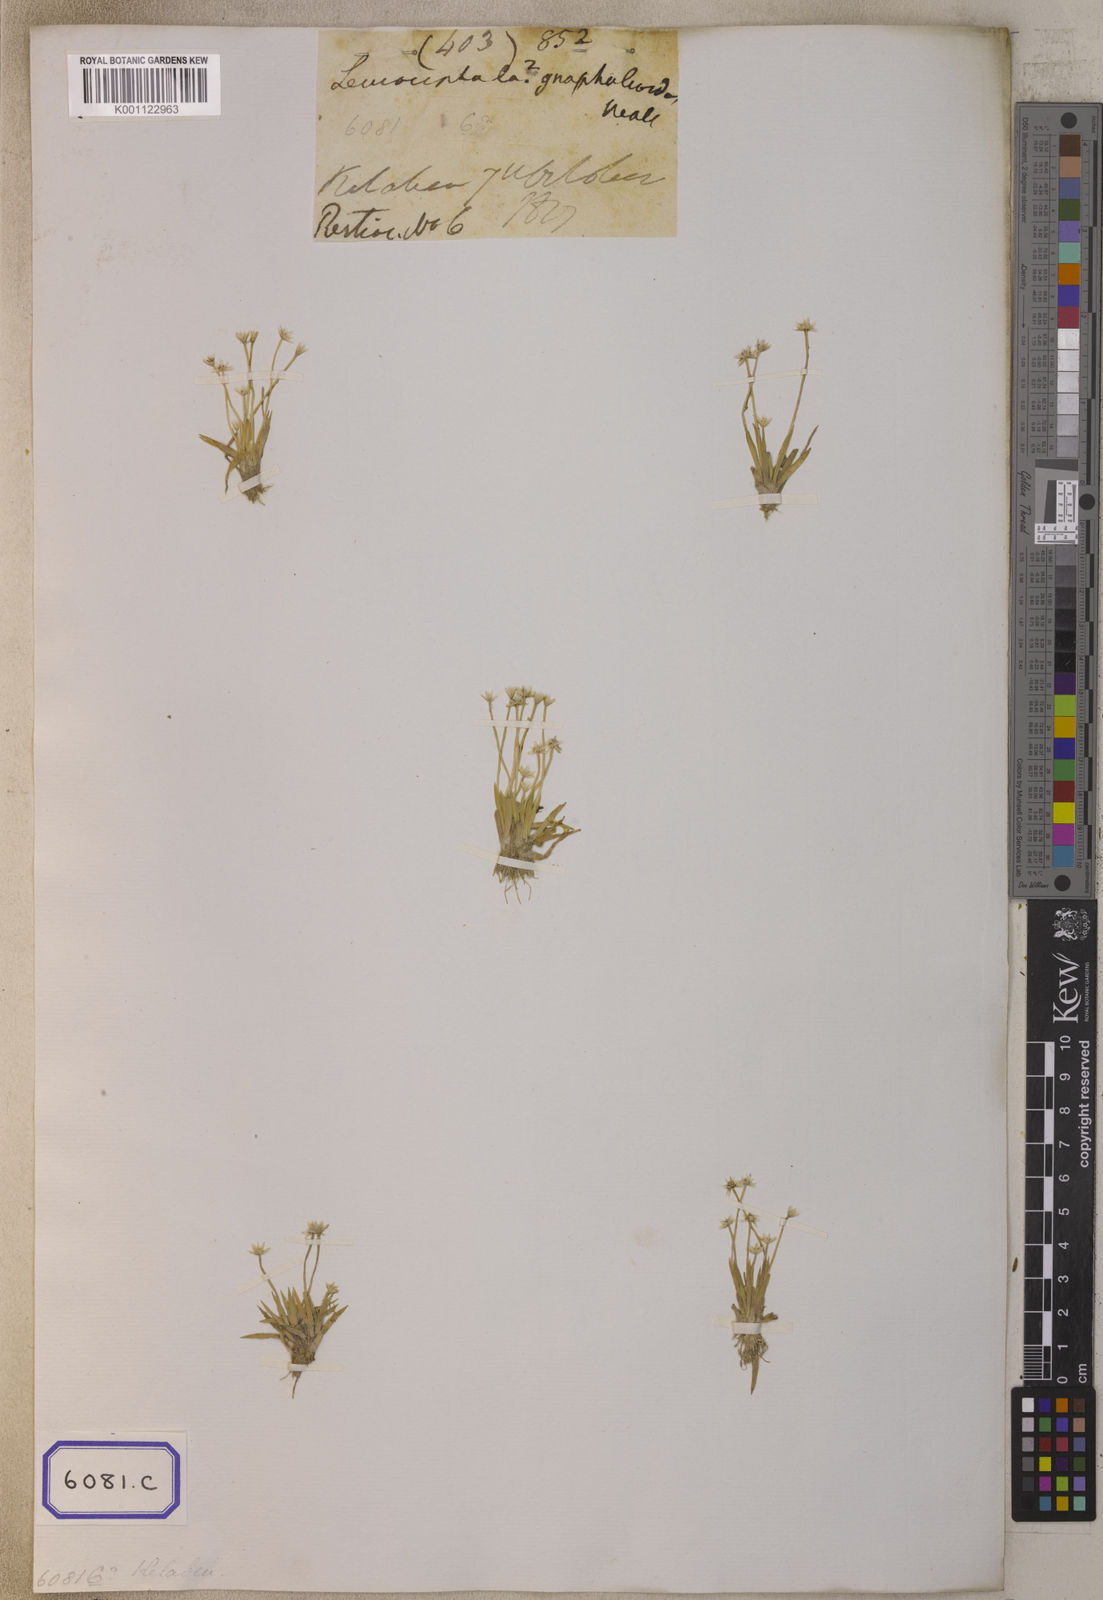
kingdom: Plantae
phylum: Tracheophyta
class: Liliopsida
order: Poales
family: Eriocaulaceae
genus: Eriocaulon
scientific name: Eriocaulon xeranthemum
